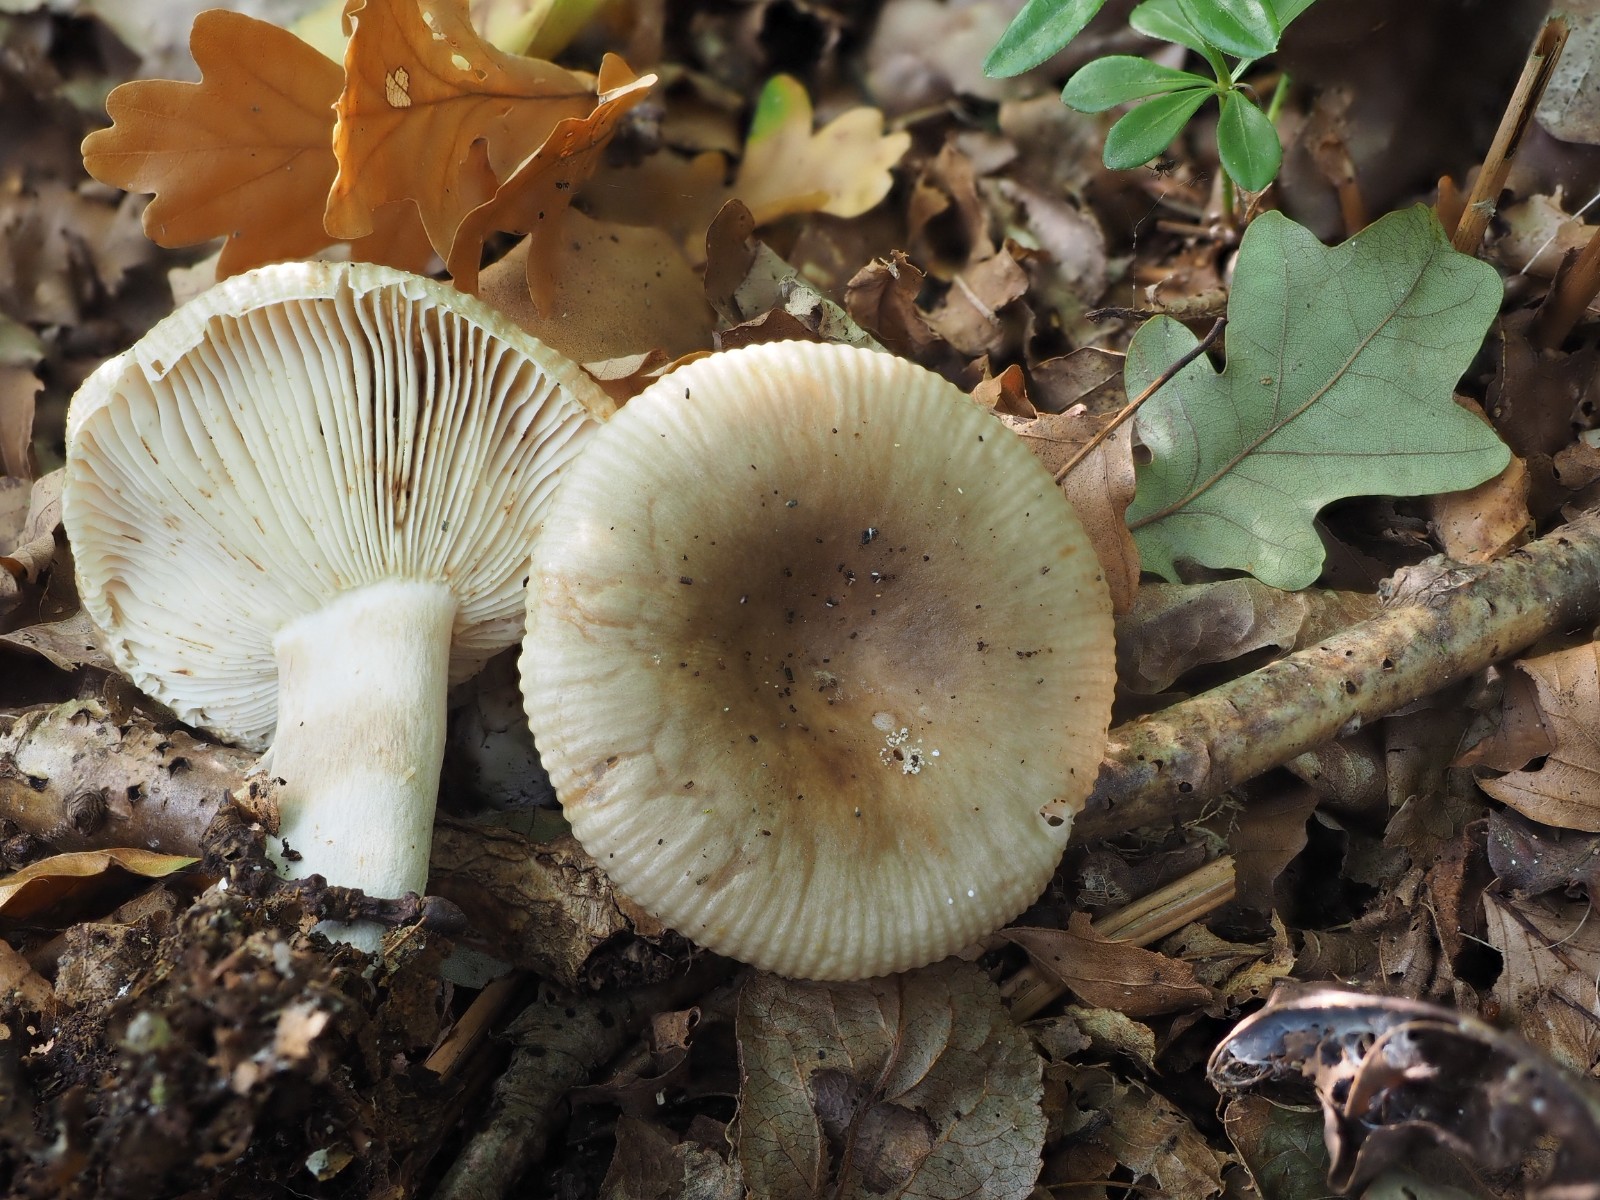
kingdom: Fungi
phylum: Basidiomycota
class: Agaricomycetes
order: Russulales
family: Russulaceae
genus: Russula
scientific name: Russula
